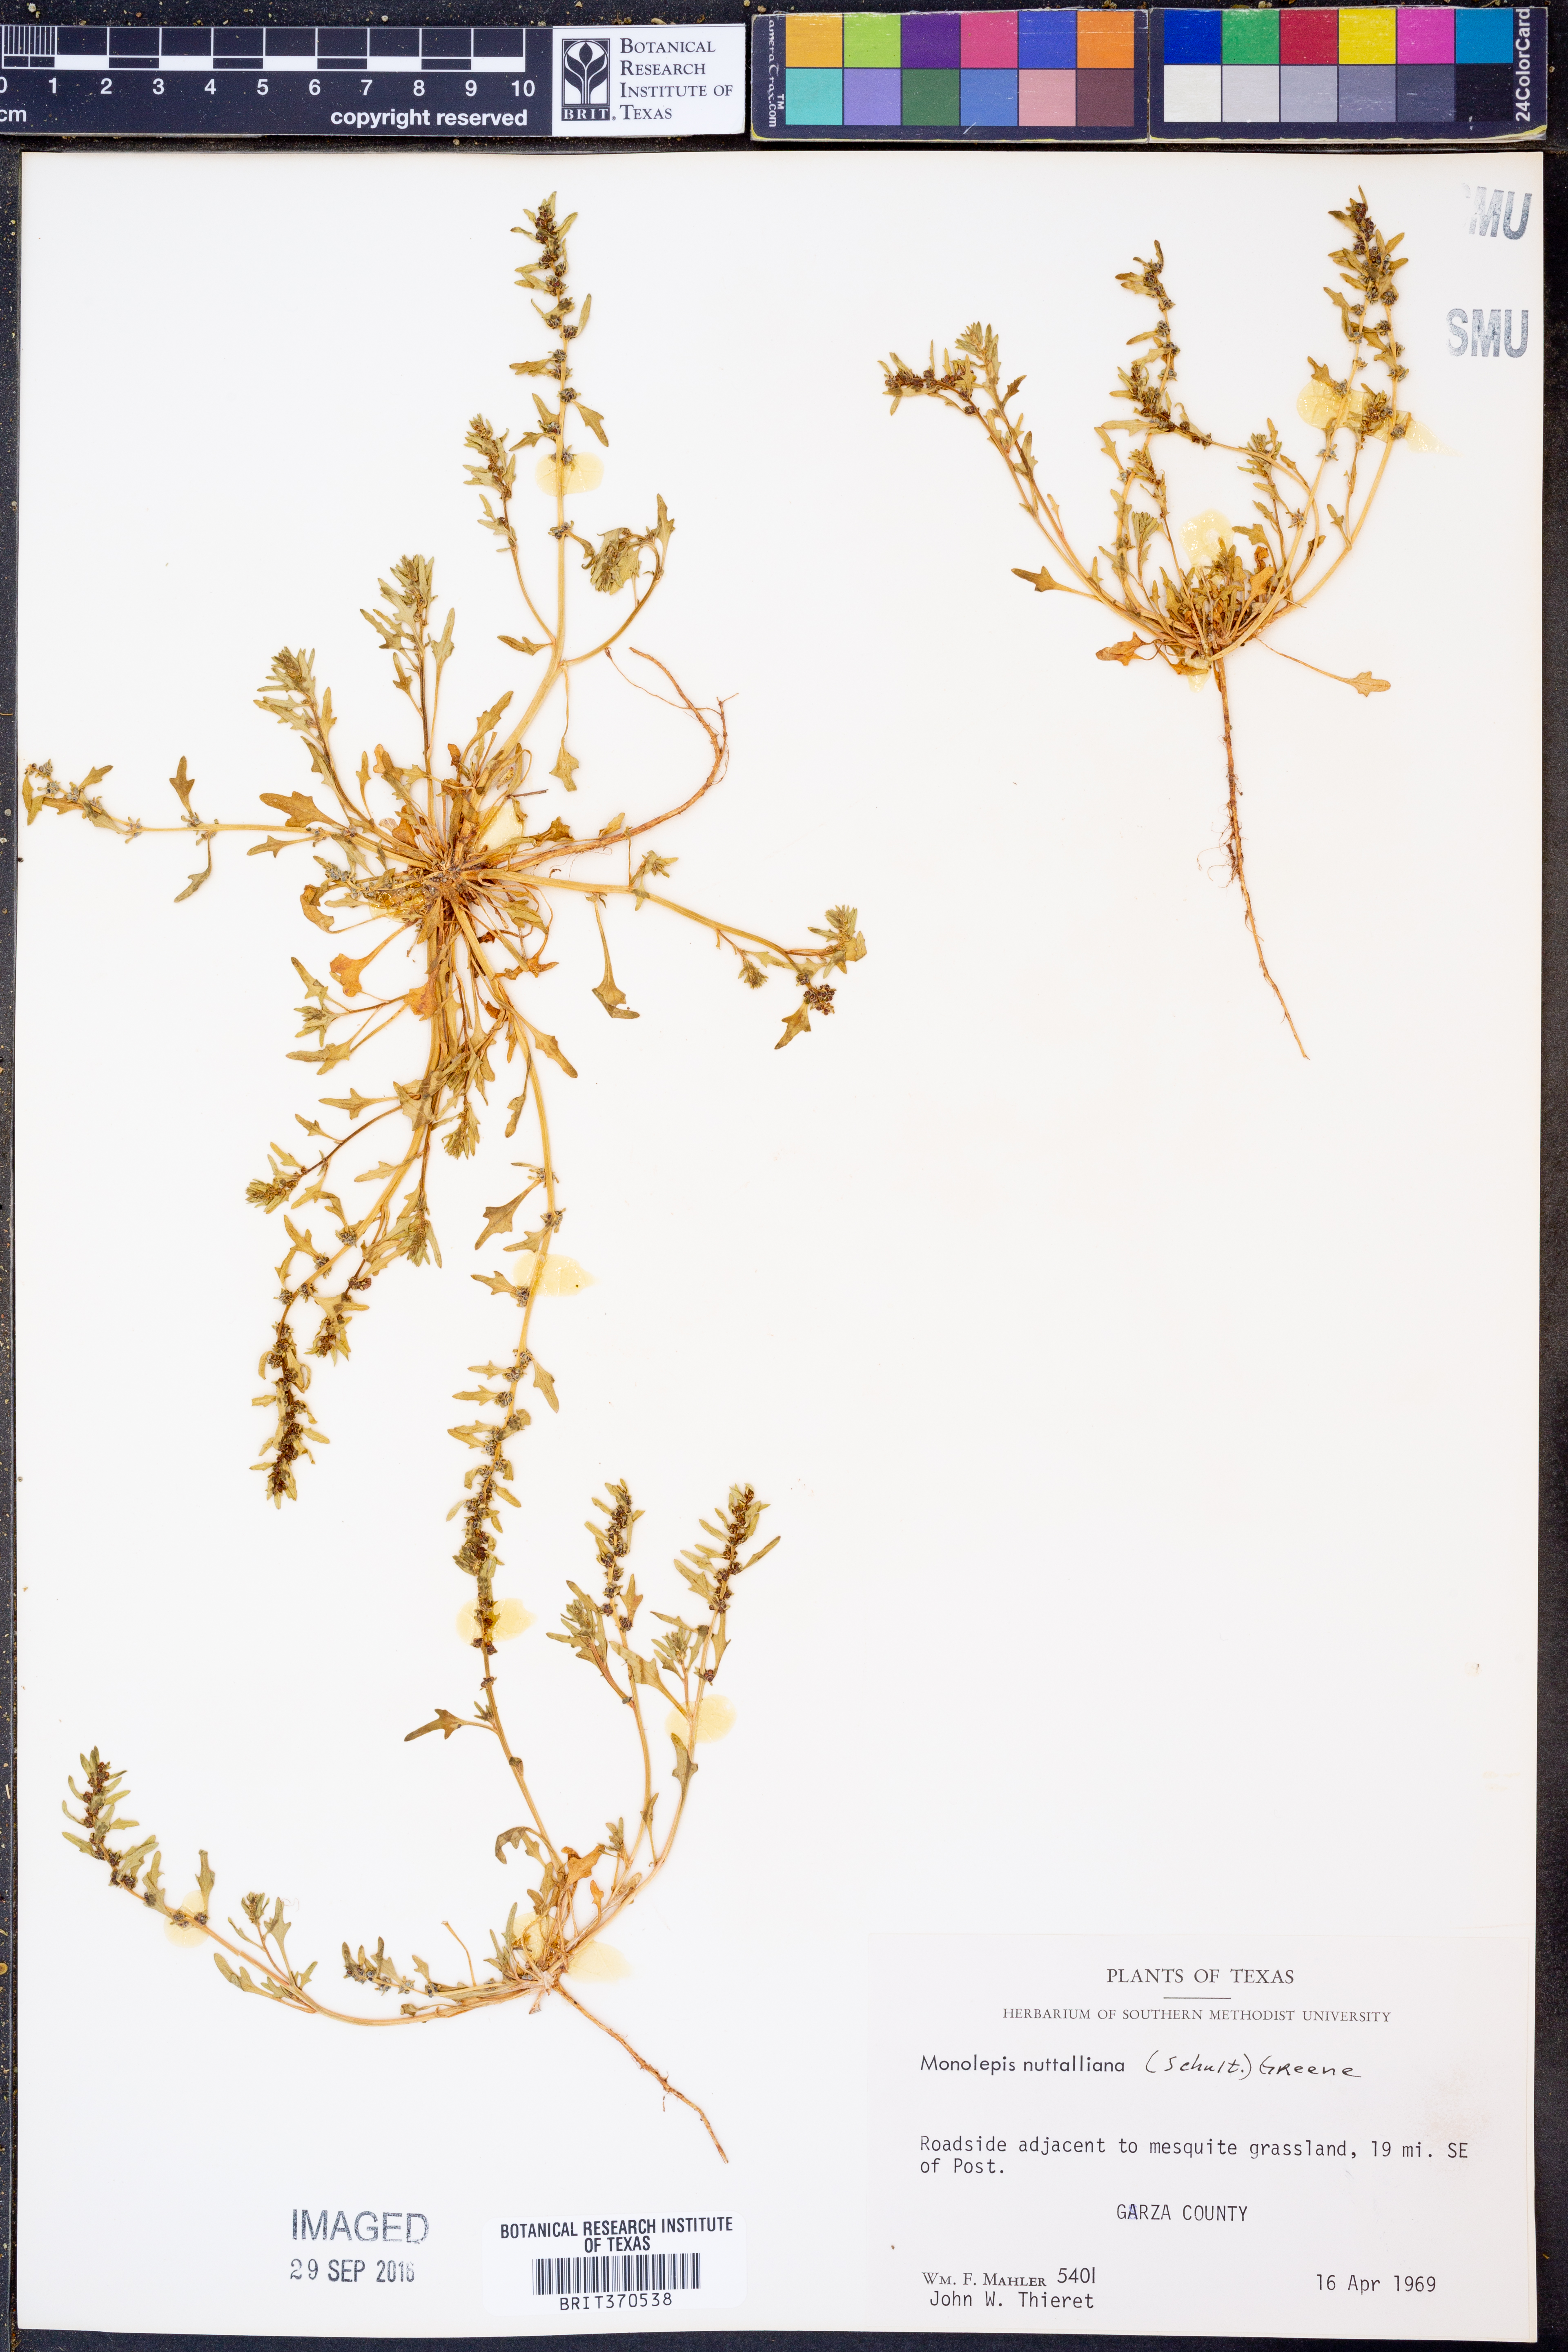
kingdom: Plantae
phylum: Tracheophyta
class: Magnoliopsida
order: Caryophyllales
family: Amaranthaceae
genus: Blitum
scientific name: Blitum nuttallianum
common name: Poverty-weed
